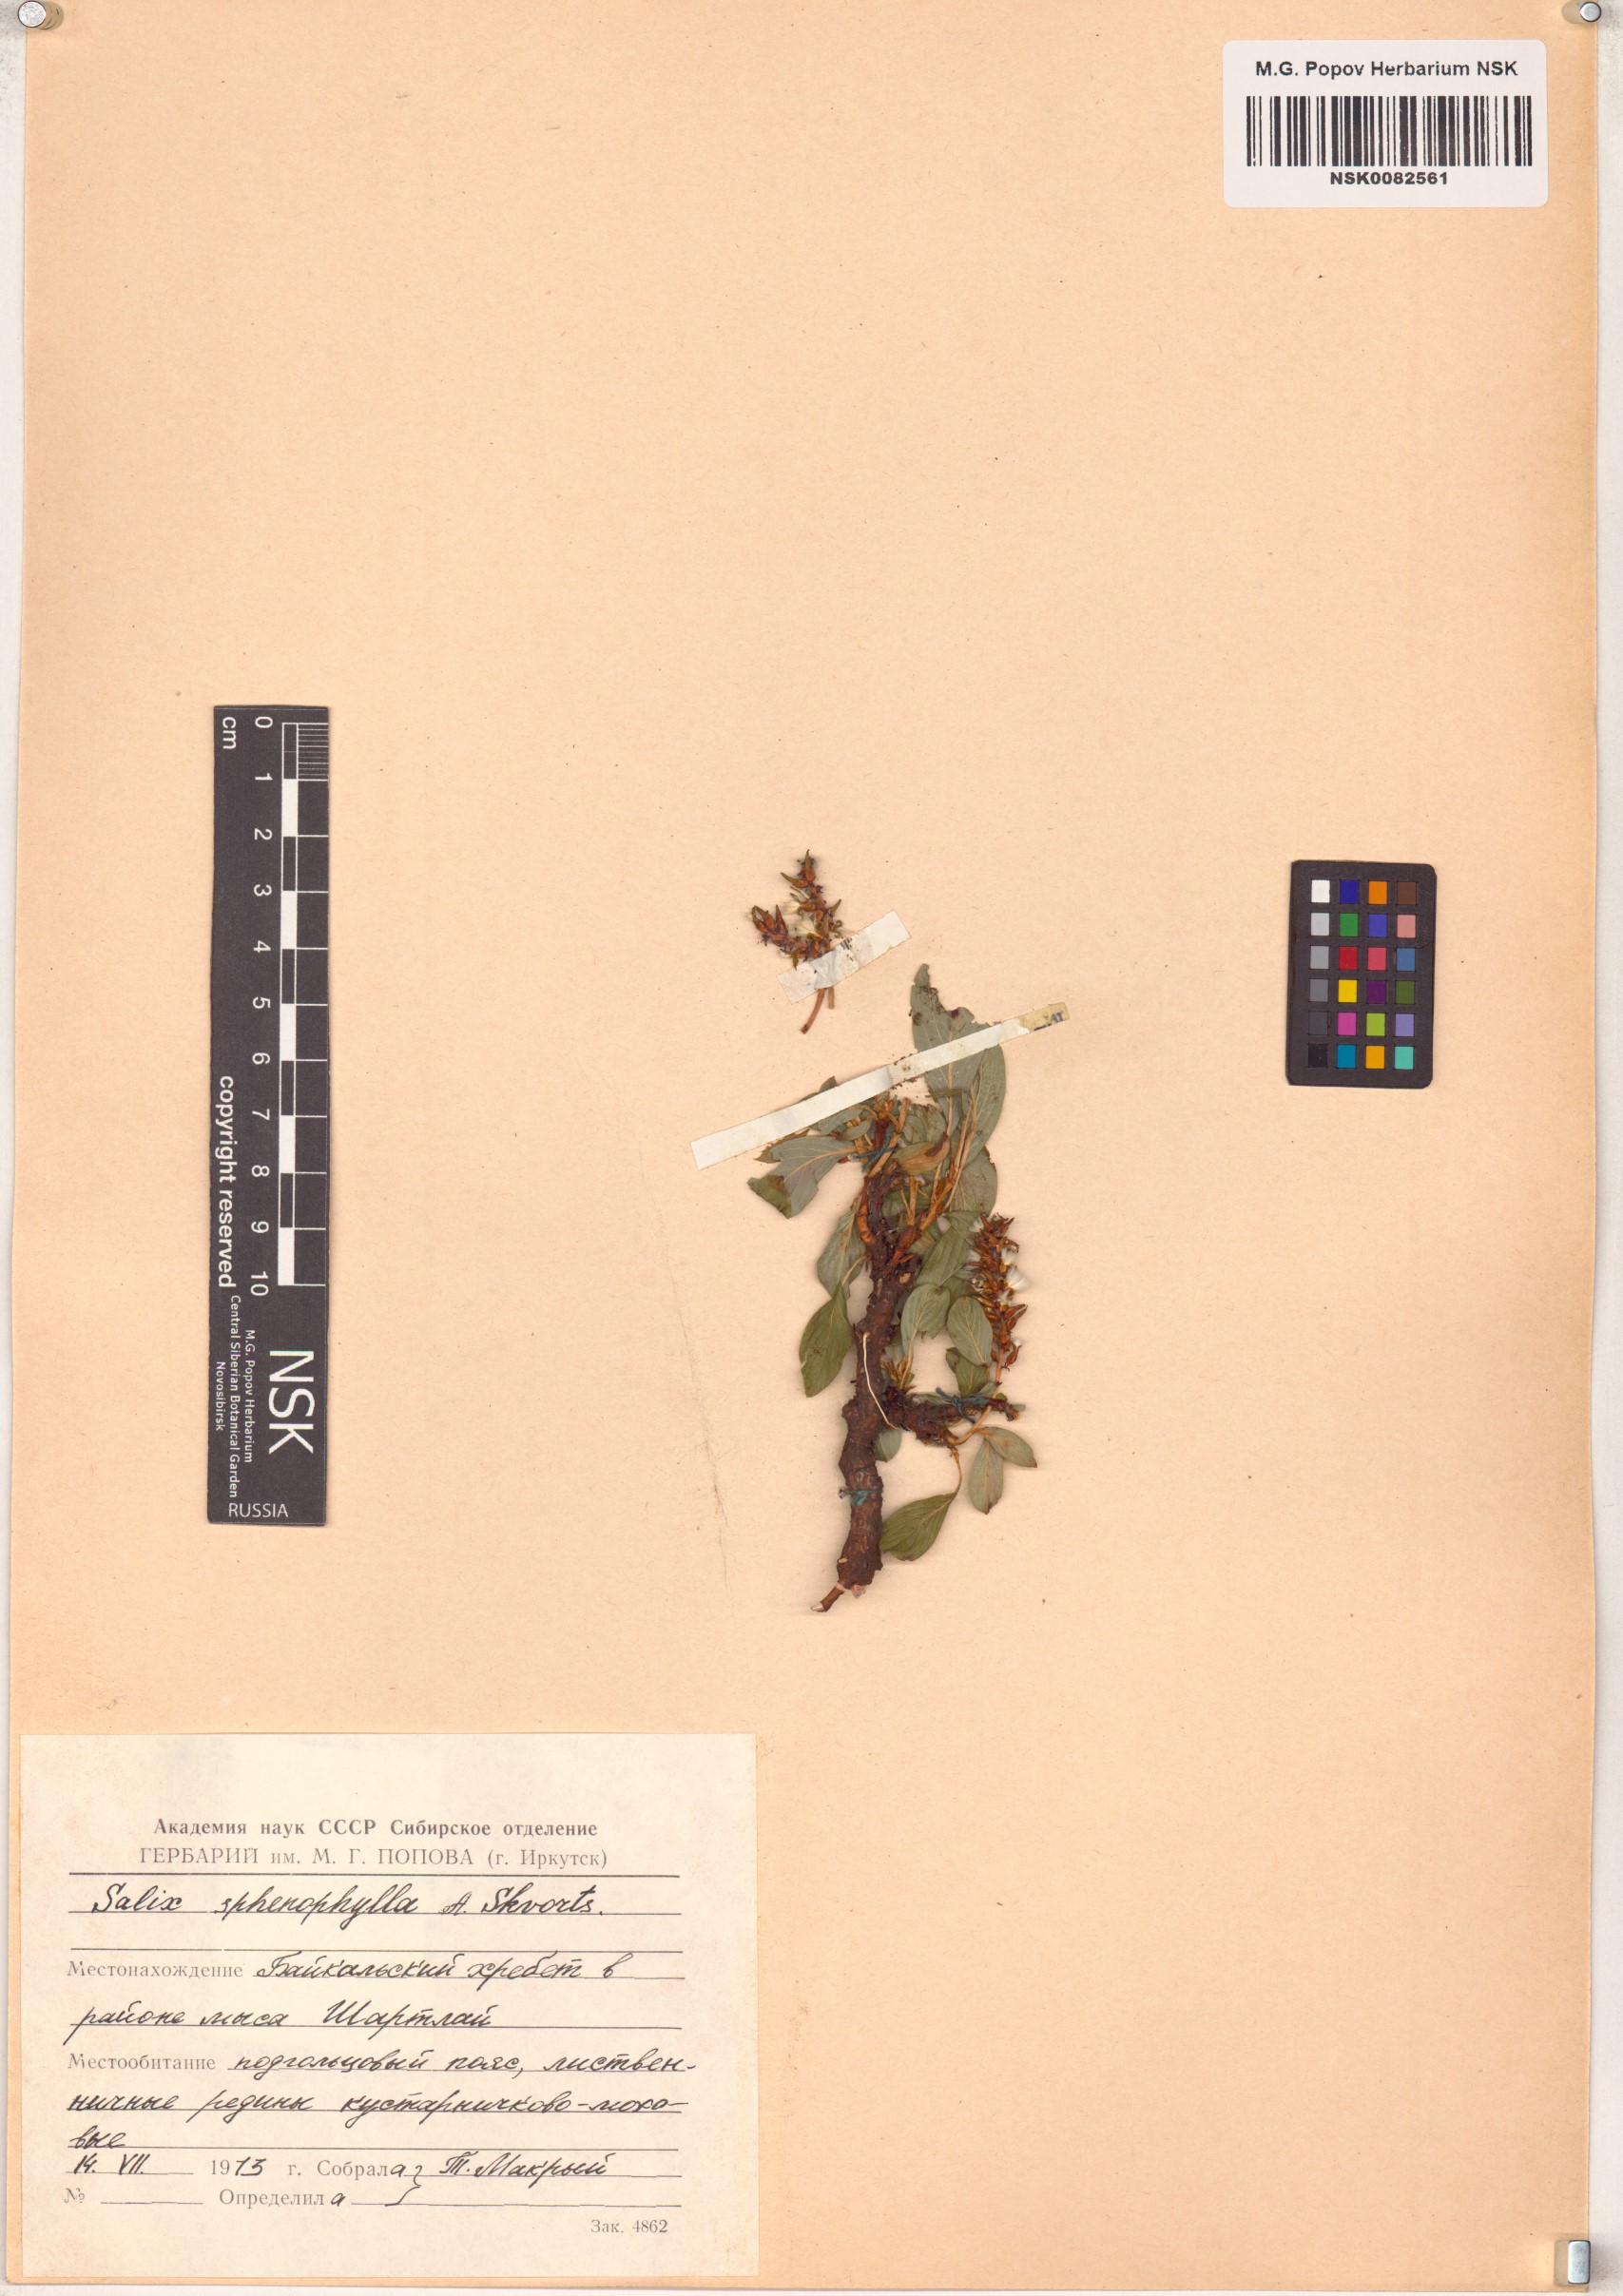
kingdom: Plantae
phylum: Tracheophyta
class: Magnoliopsida
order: Malpighiales
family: Salicaceae
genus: Salix
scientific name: Salix sphenophylla
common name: Wedge-leaved willow
